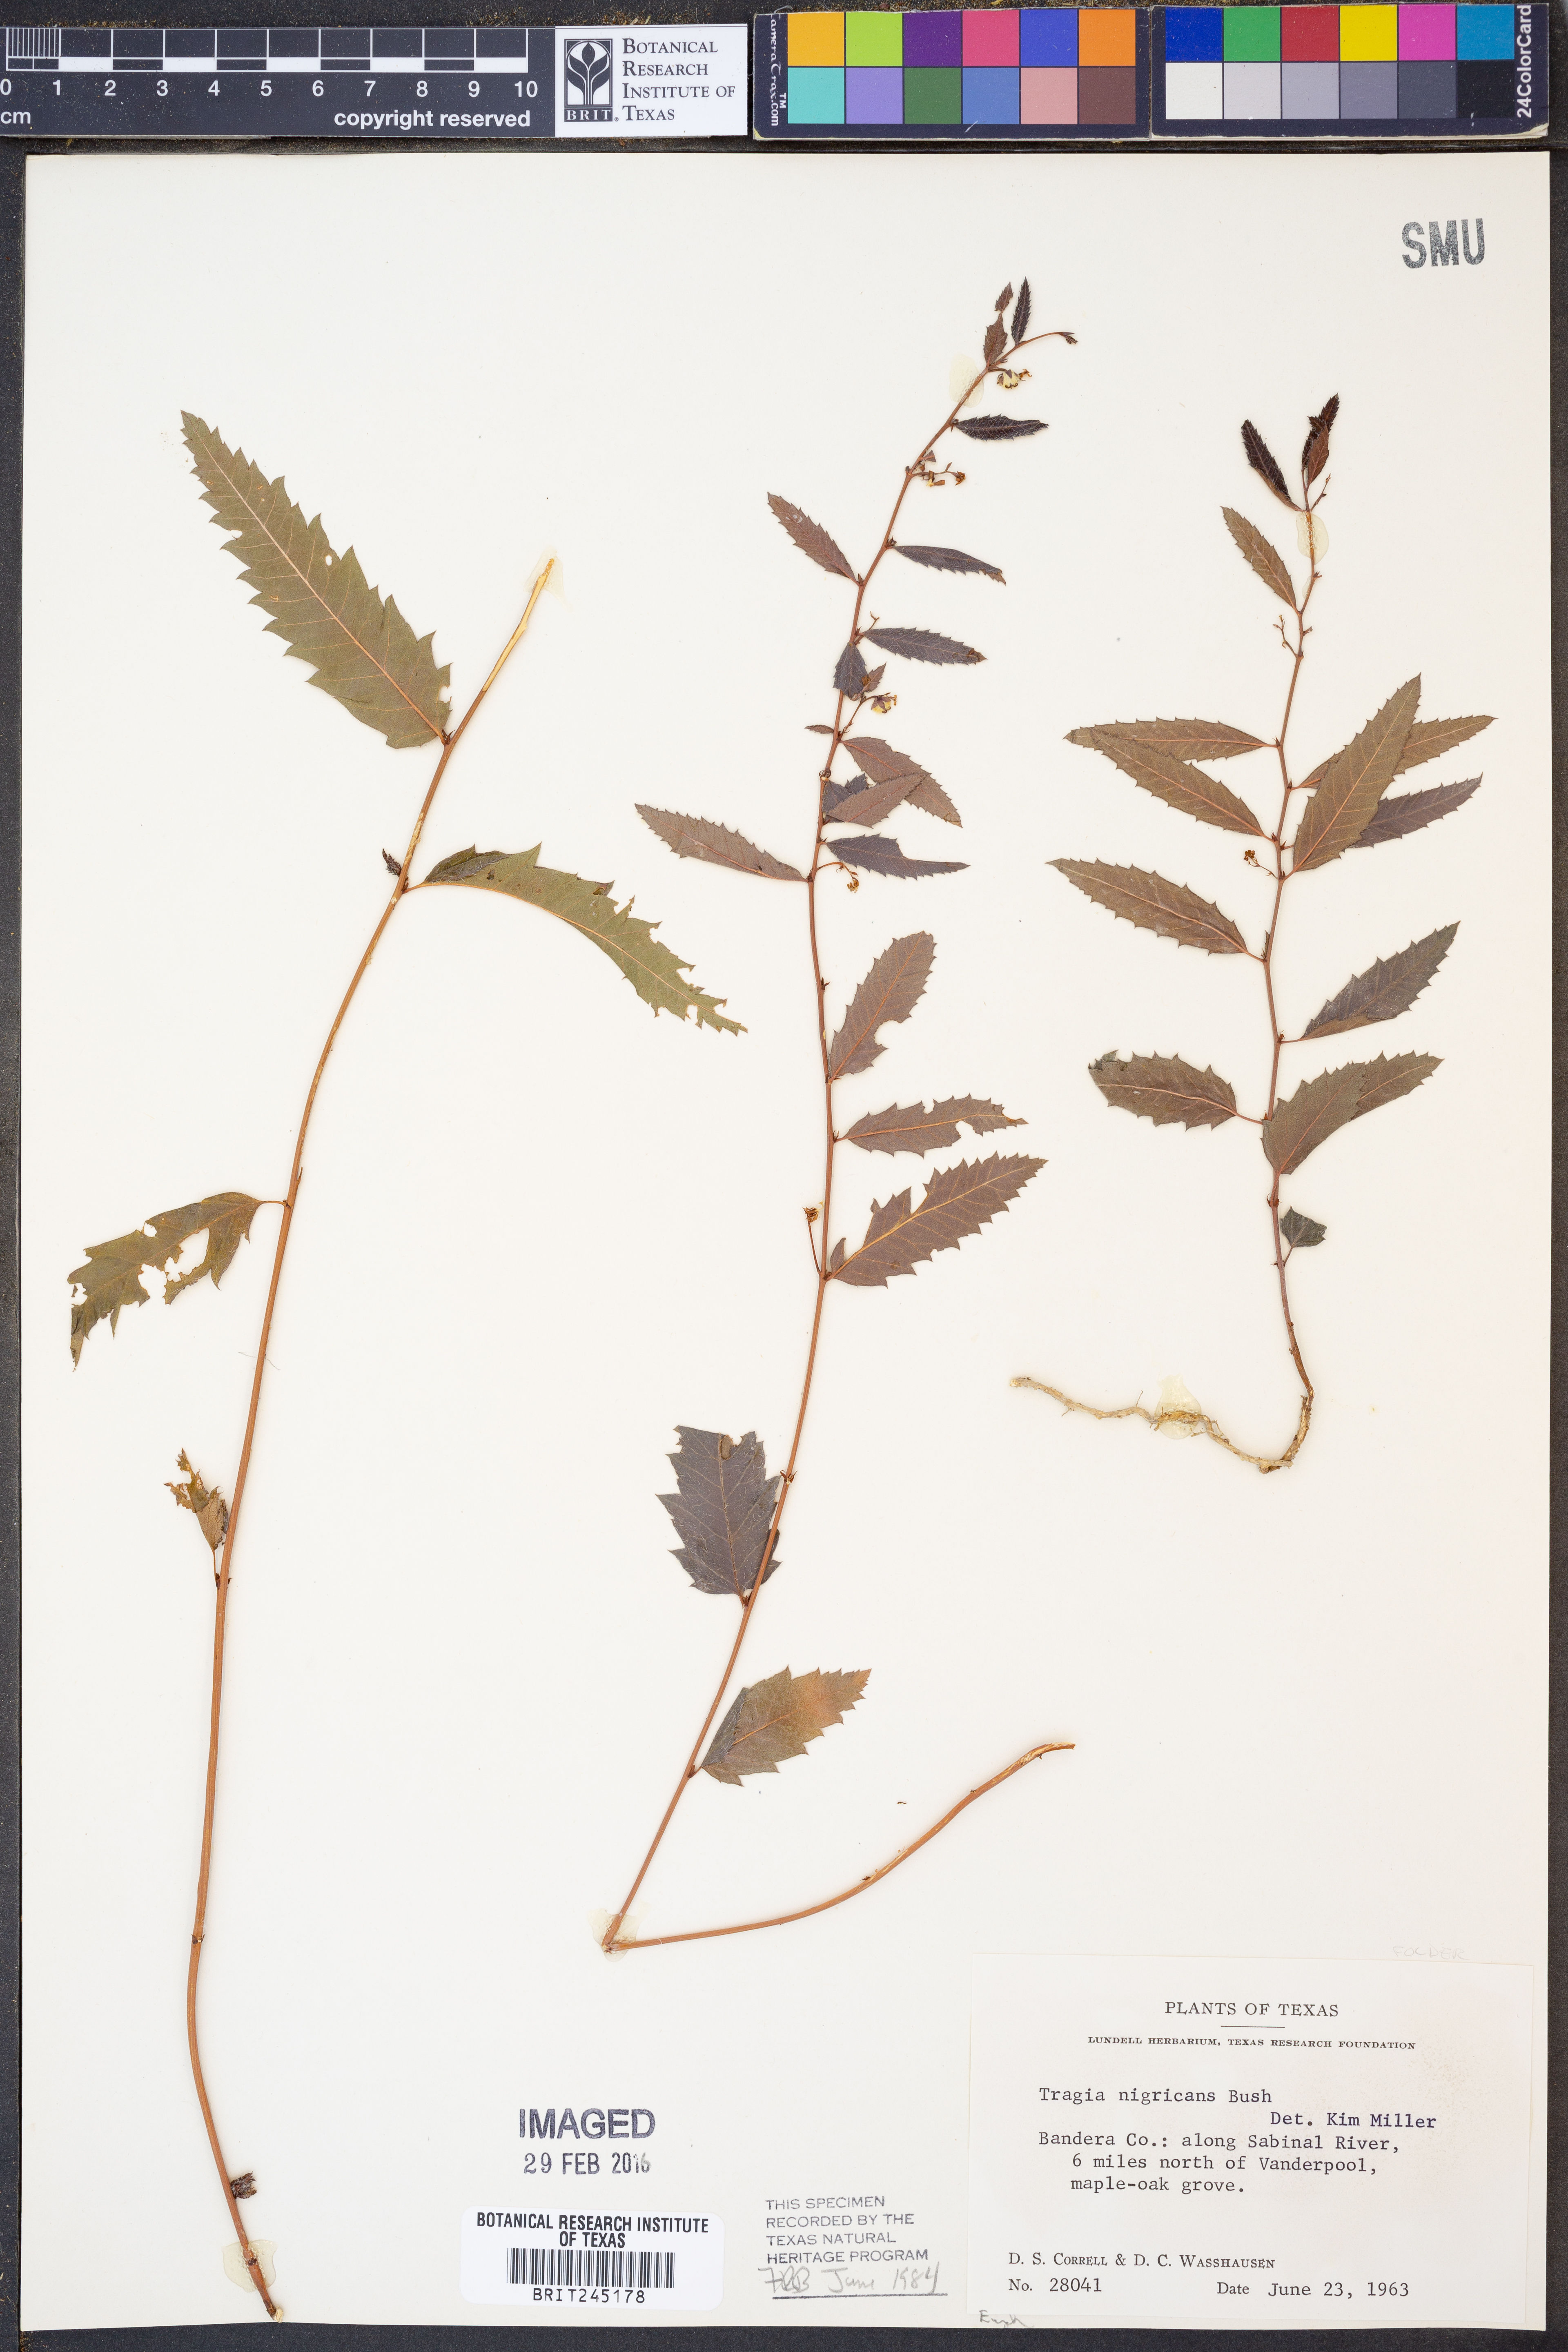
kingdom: Plantae
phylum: Tracheophyta
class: Magnoliopsida
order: Malpighiales
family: Euphorbiaceae
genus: Tragia
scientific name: Tragia nigricans
